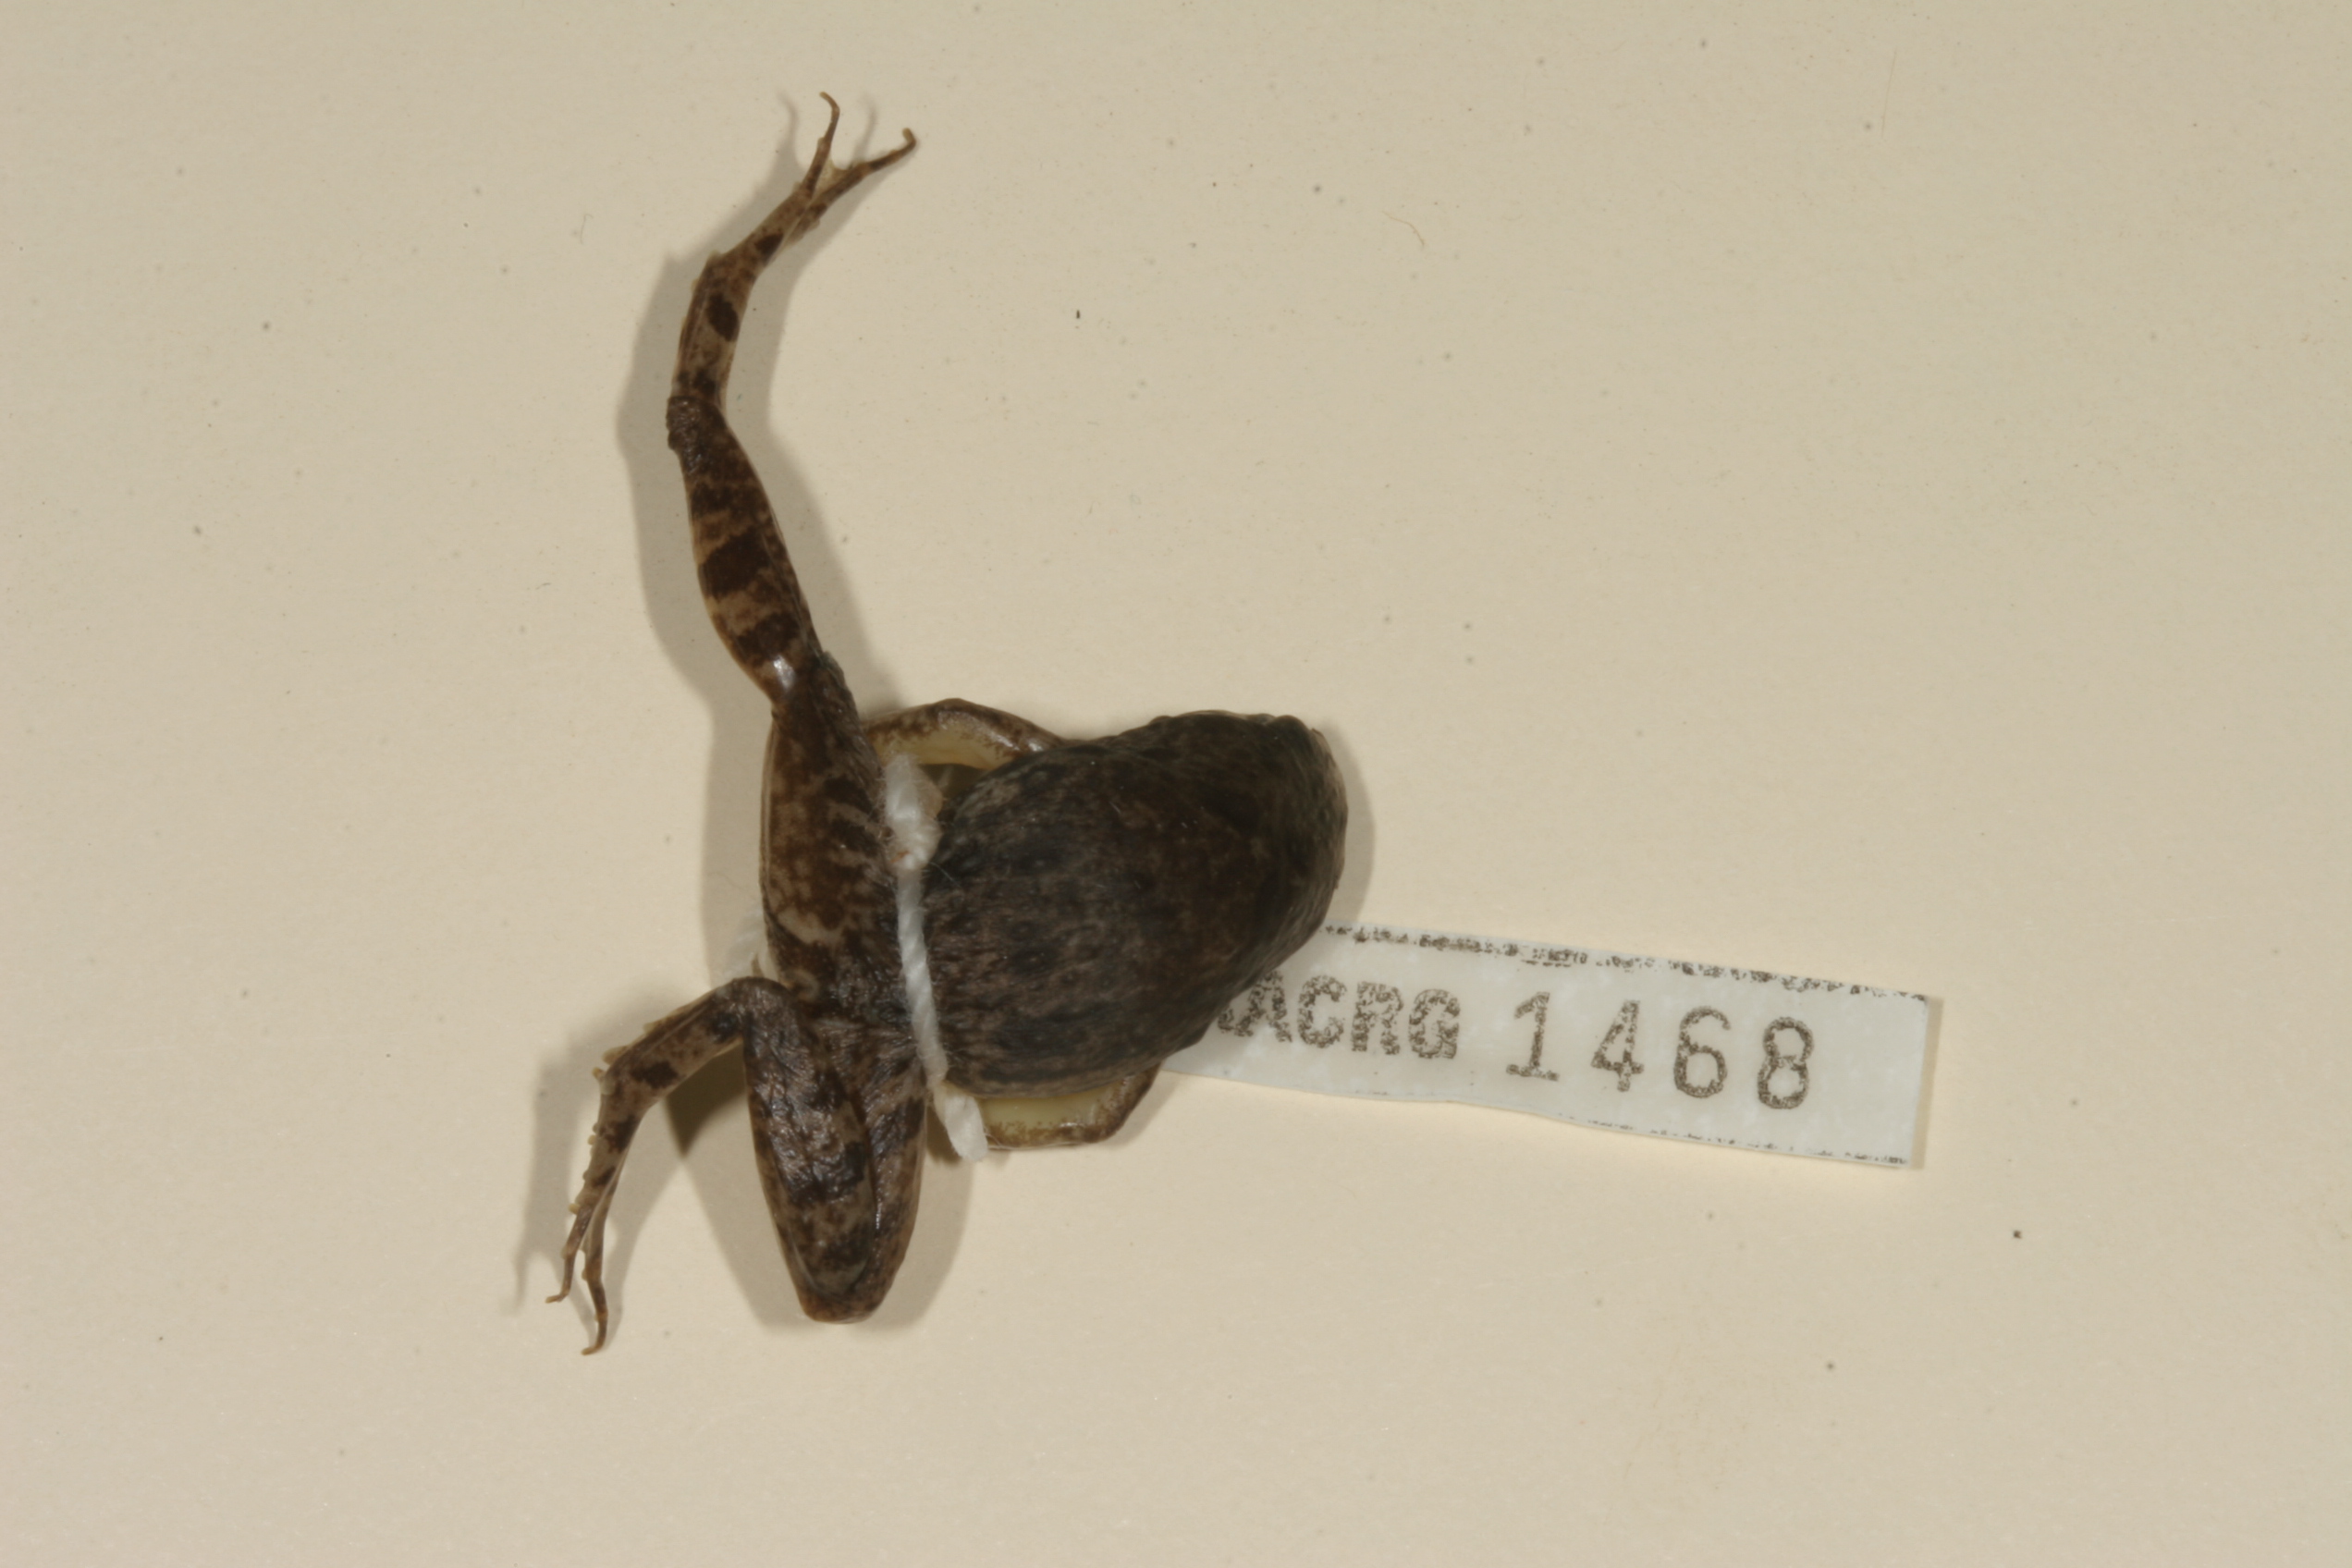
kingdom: Animalia
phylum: Chordata
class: Amphibia
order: Anura
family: Phrynobatrachidae
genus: Phrynobatrachus
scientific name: Phrynobatrachus natalensis
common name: Snoring puddle frog
